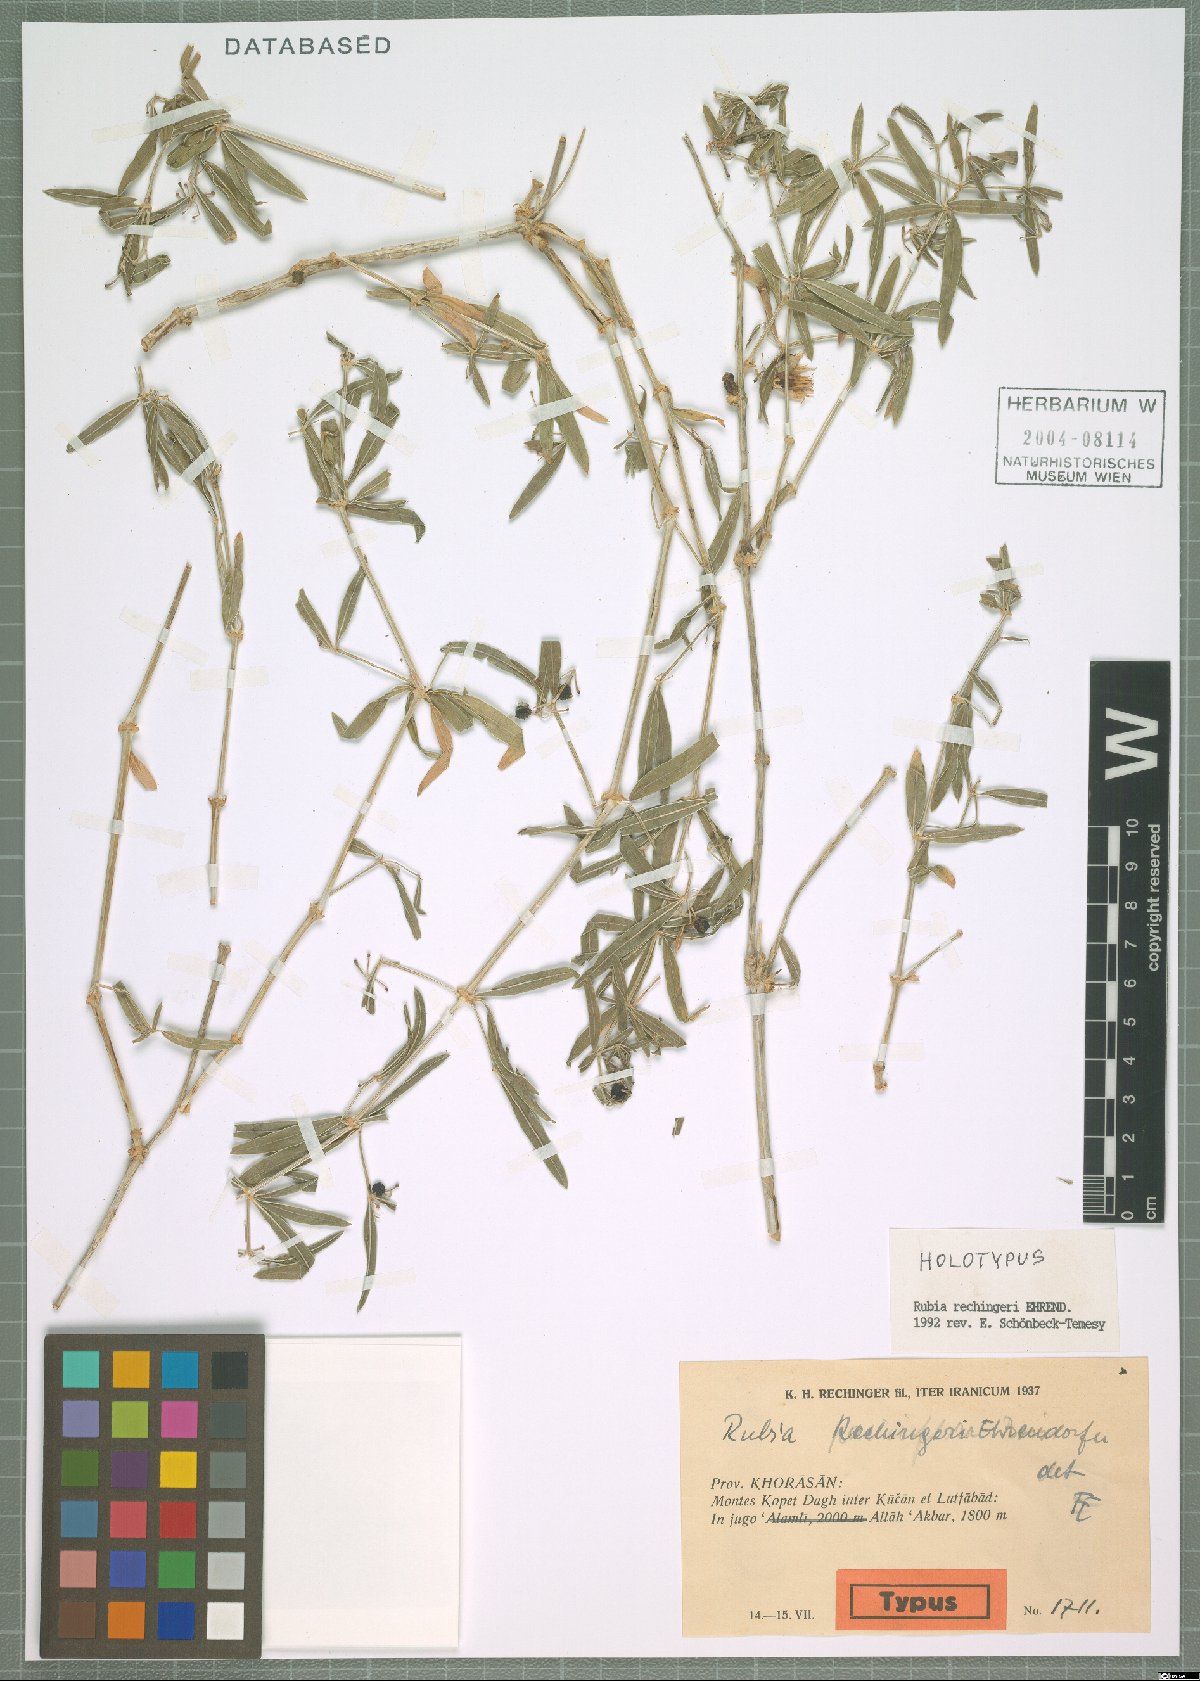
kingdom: Plantae
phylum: Tracheophyta
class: Magnoliopsida
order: Gentianales
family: Rubiaceae
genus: Rubia
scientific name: Rubia rechingeri
